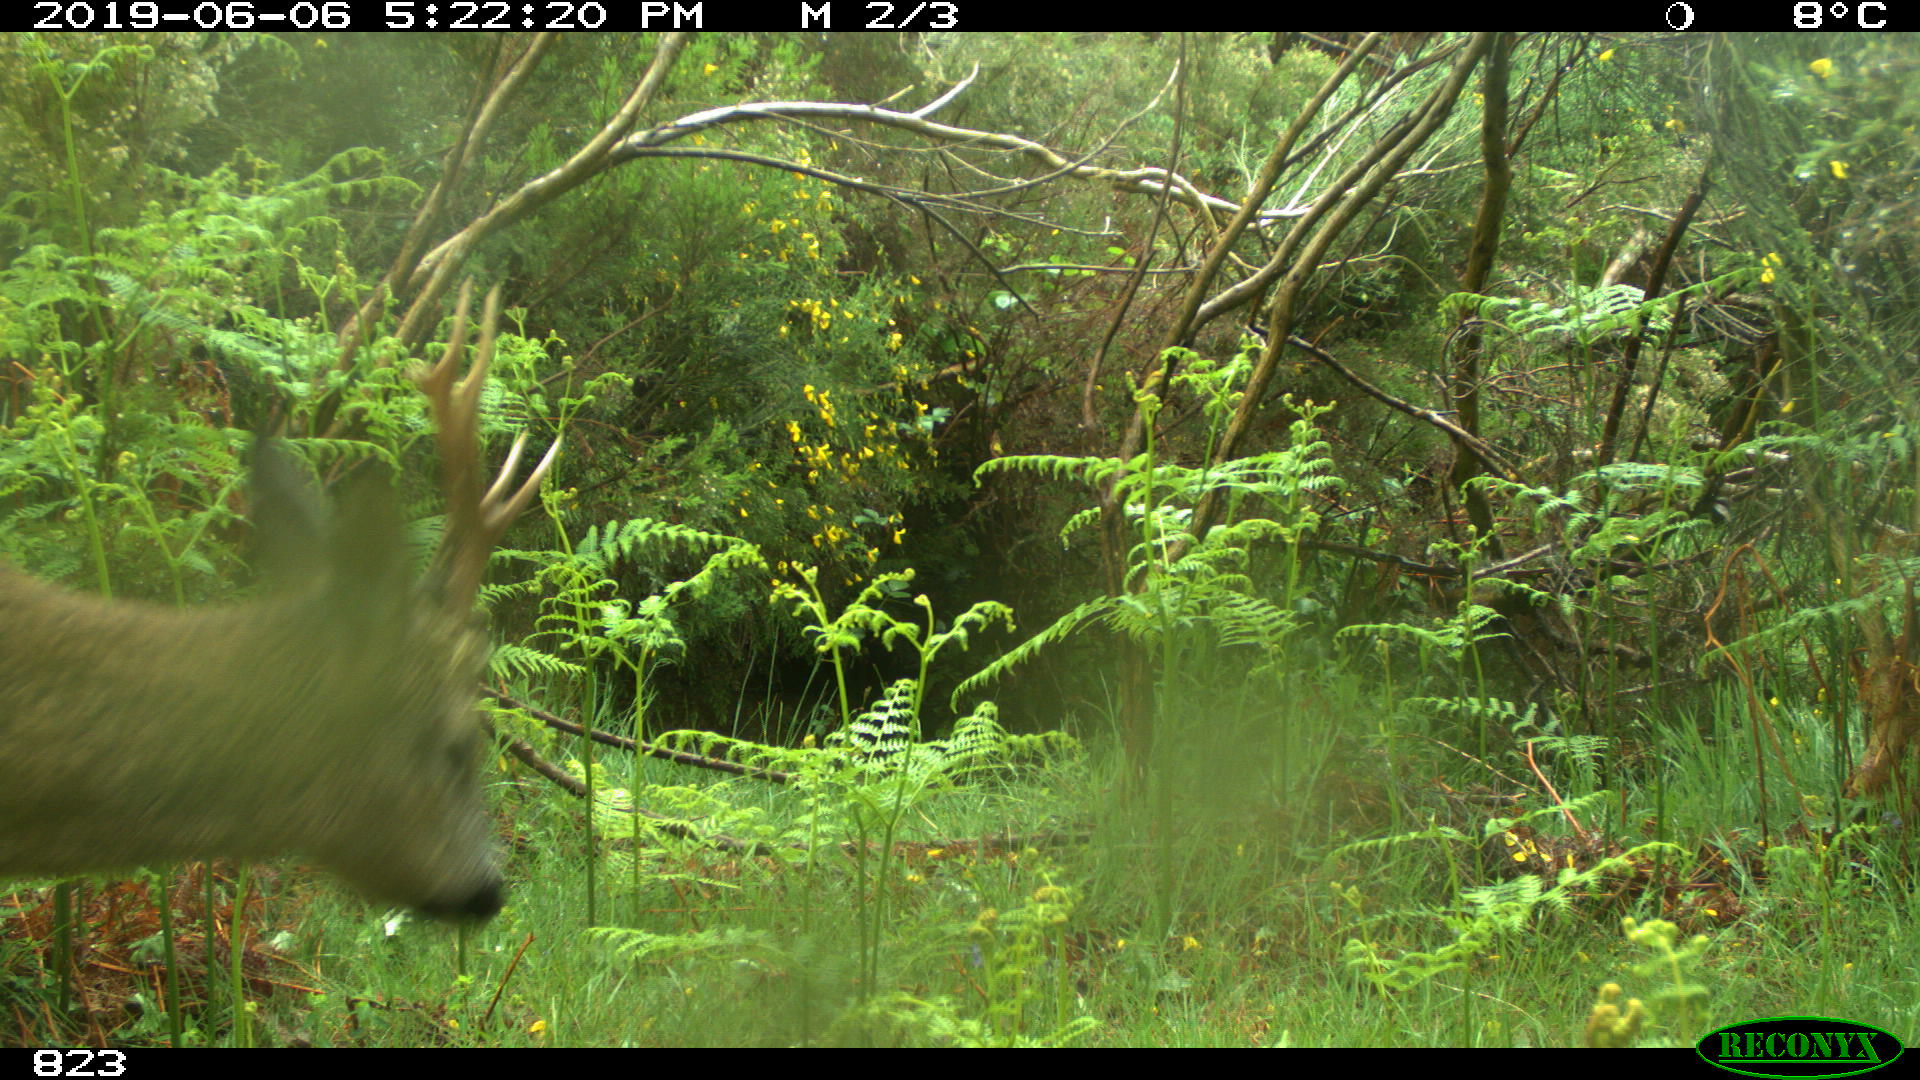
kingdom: Animalia
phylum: Chordata
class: Mammalia
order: Artiodactyla
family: Cervidae
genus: Capreolus
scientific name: Capreolus capreolus
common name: Western roe deer
